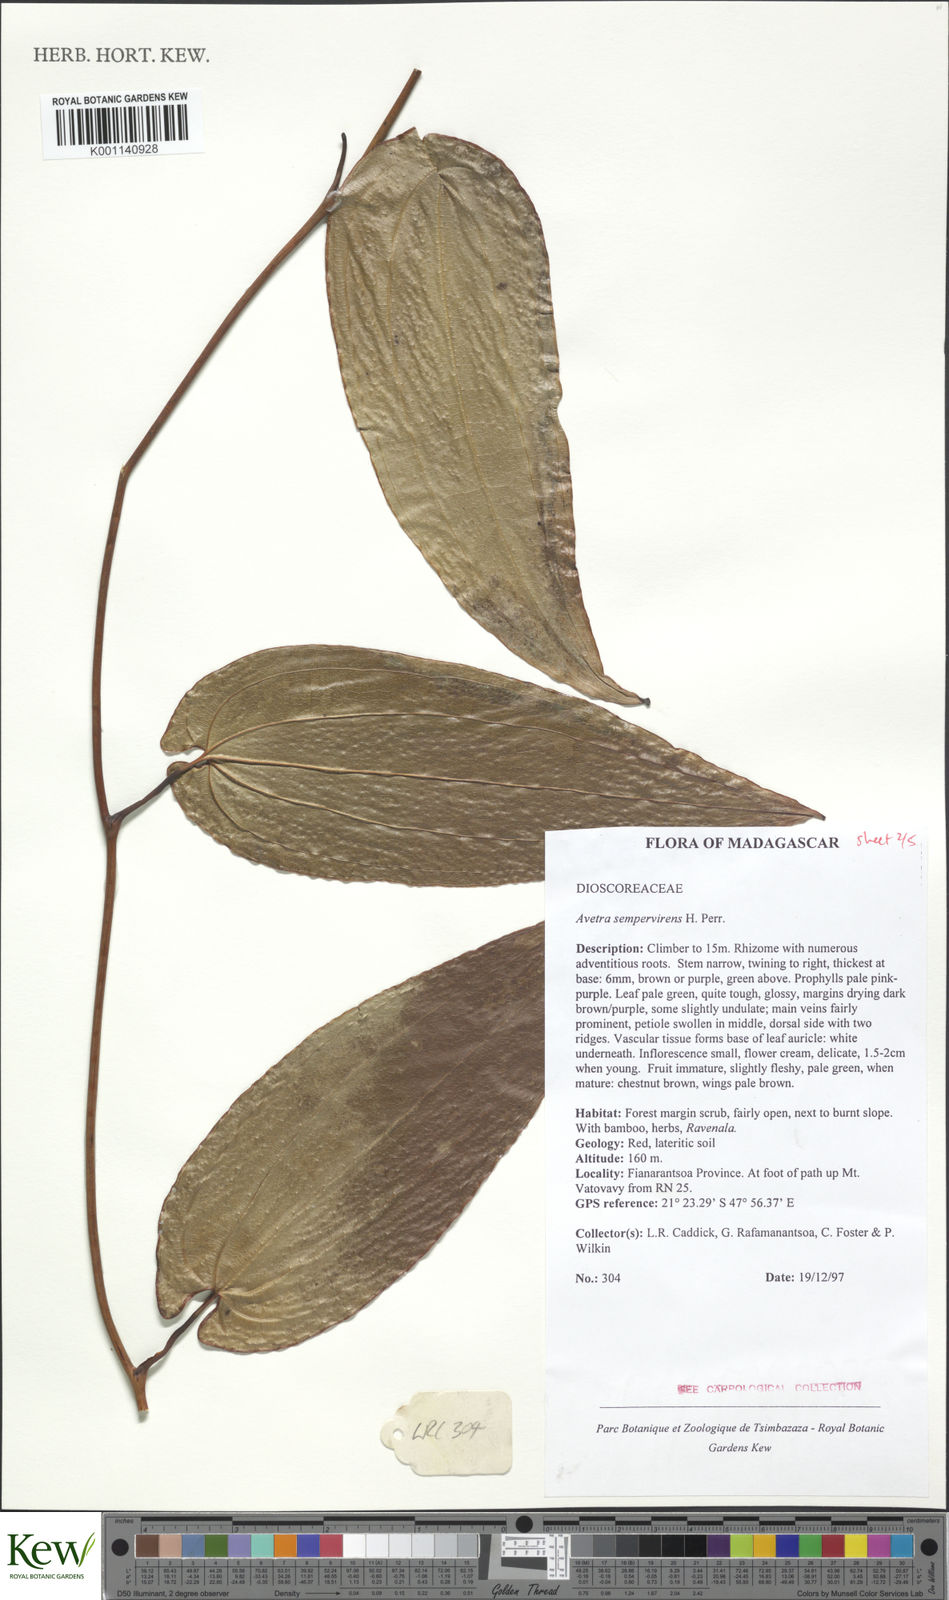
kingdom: Plantae
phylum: Tracheophyta
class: Liliopsida
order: Dioscoreales
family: Dioscoreaceae
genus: Trichopus
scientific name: Trichopus sempervirens
